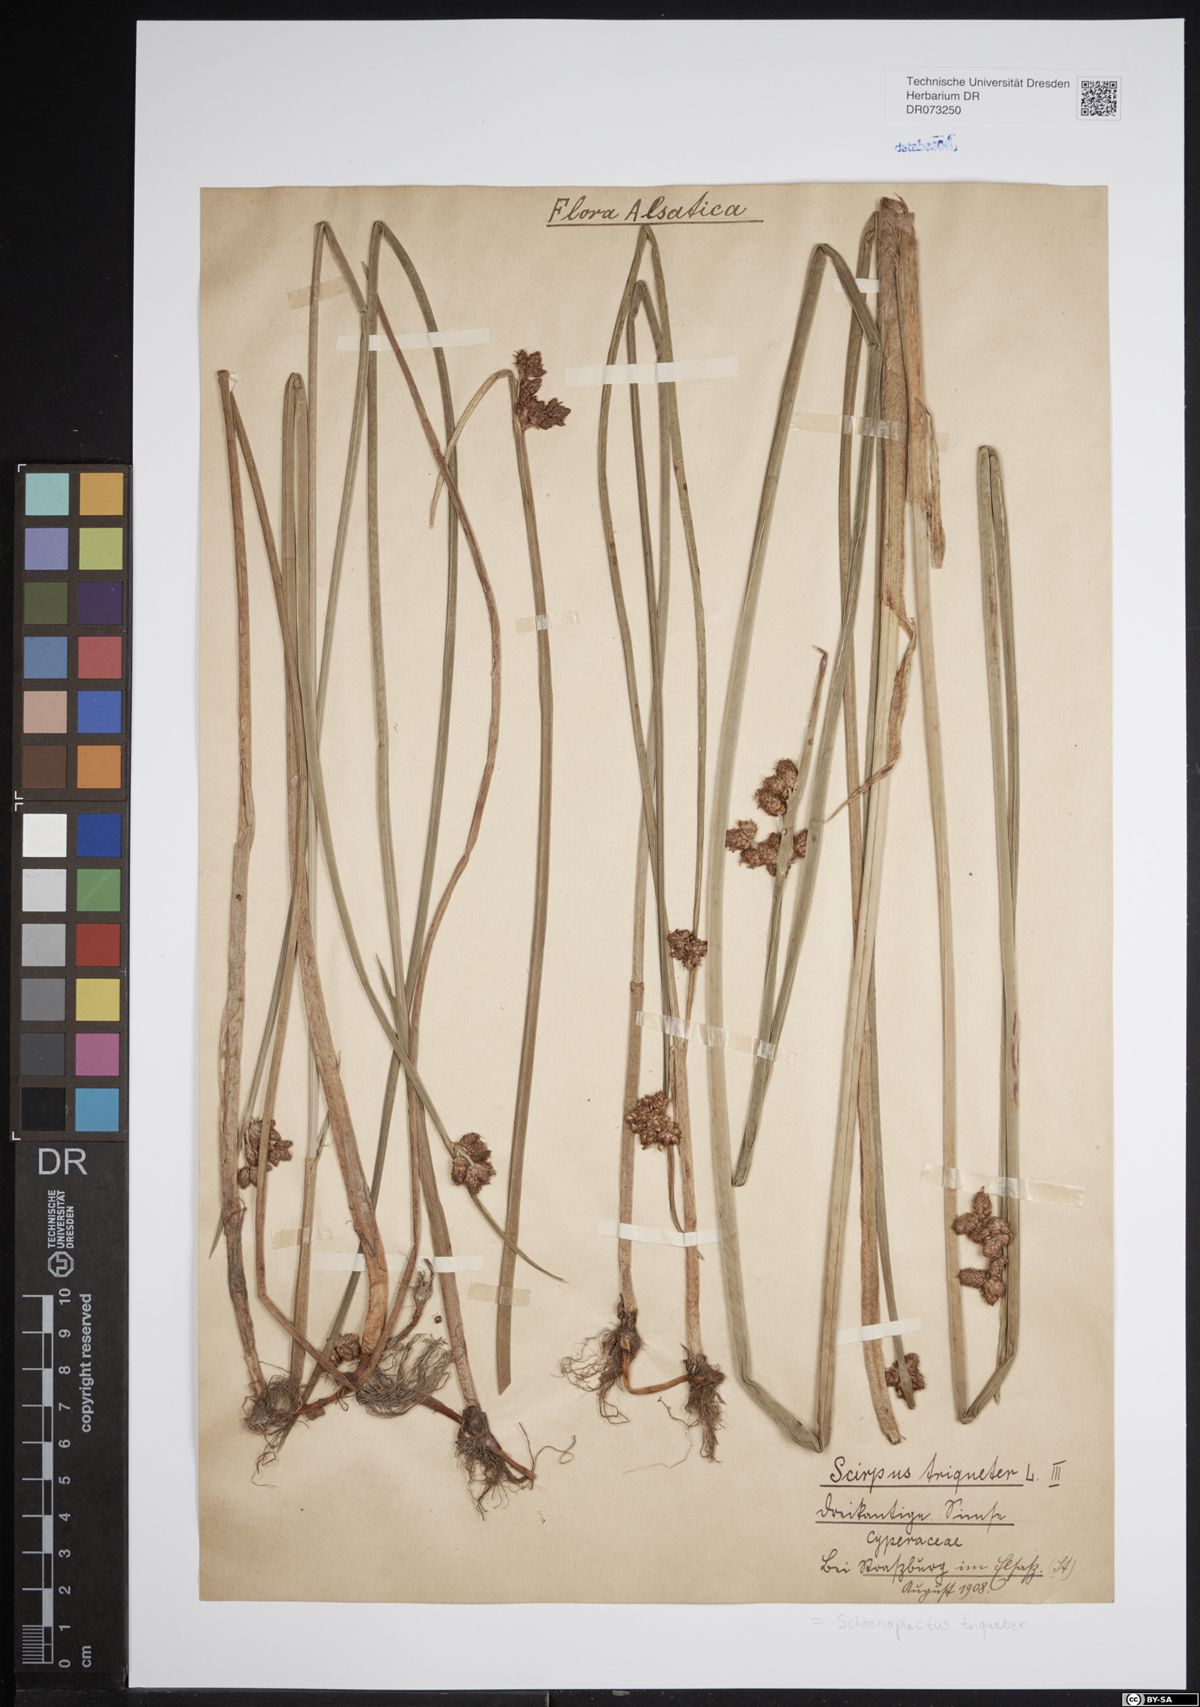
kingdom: Plantae
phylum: Tracheophyta
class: Liliopsida
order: Poales
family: Cyperaceae
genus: Schoenoplectus
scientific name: Schoenoplectus triqueter
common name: Triangular club-rush
